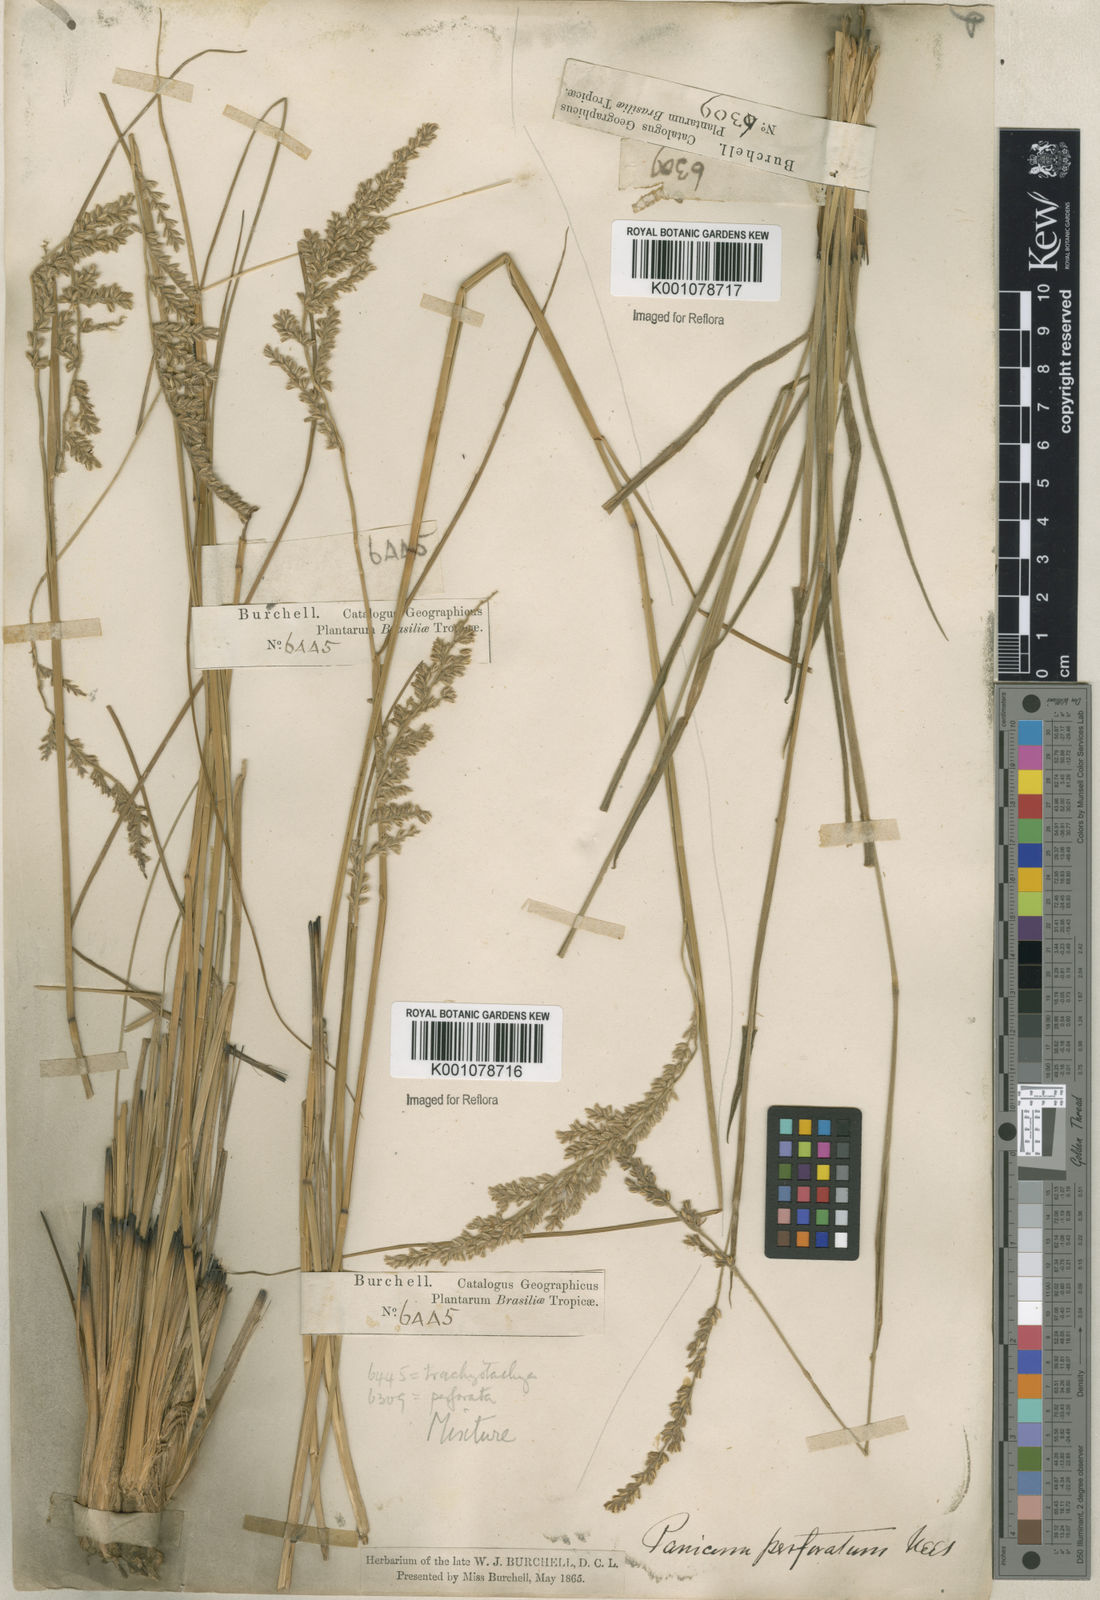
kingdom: Plantae
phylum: Tracheophyta
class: Liliopsida
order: Poales
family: Poaceae
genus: Anthaenantiopsis
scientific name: Anthaenantiopsis perforata
